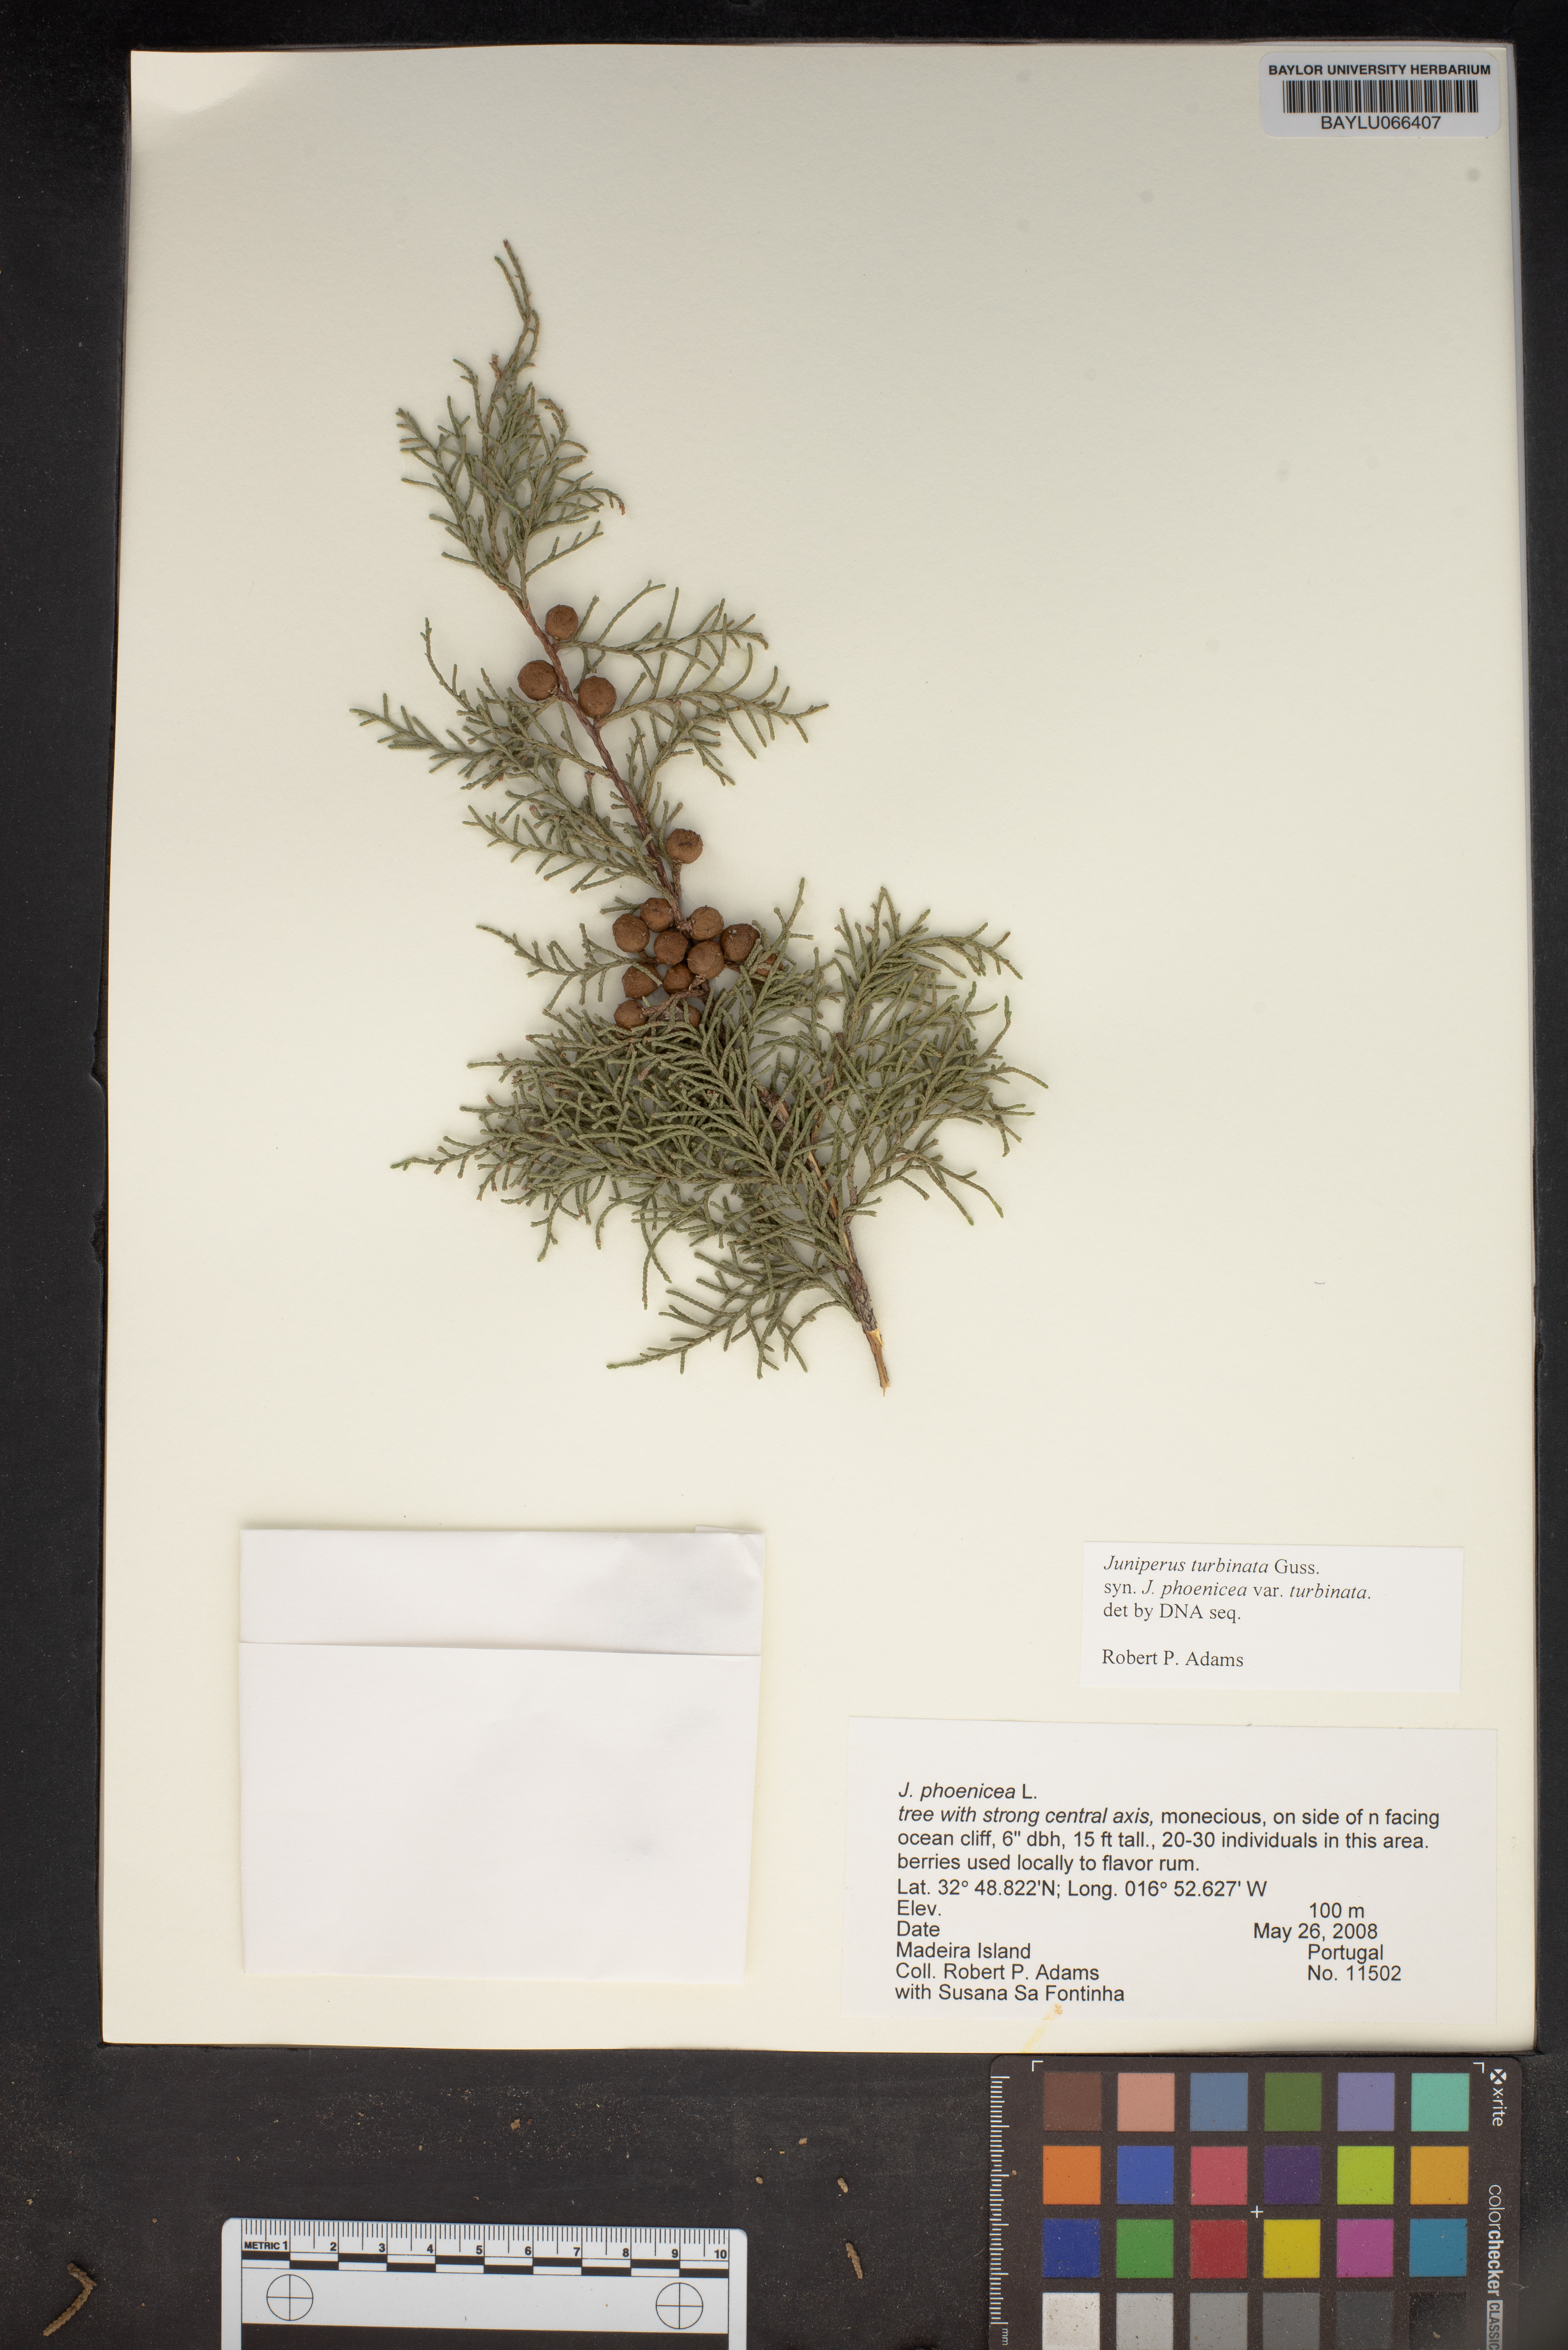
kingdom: Plantae
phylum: Tracheophyta
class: Pinopsida
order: Pinales
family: Cupressaceae
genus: Juniperus
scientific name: Juniperus phoenicea
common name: Phoenician juniper
